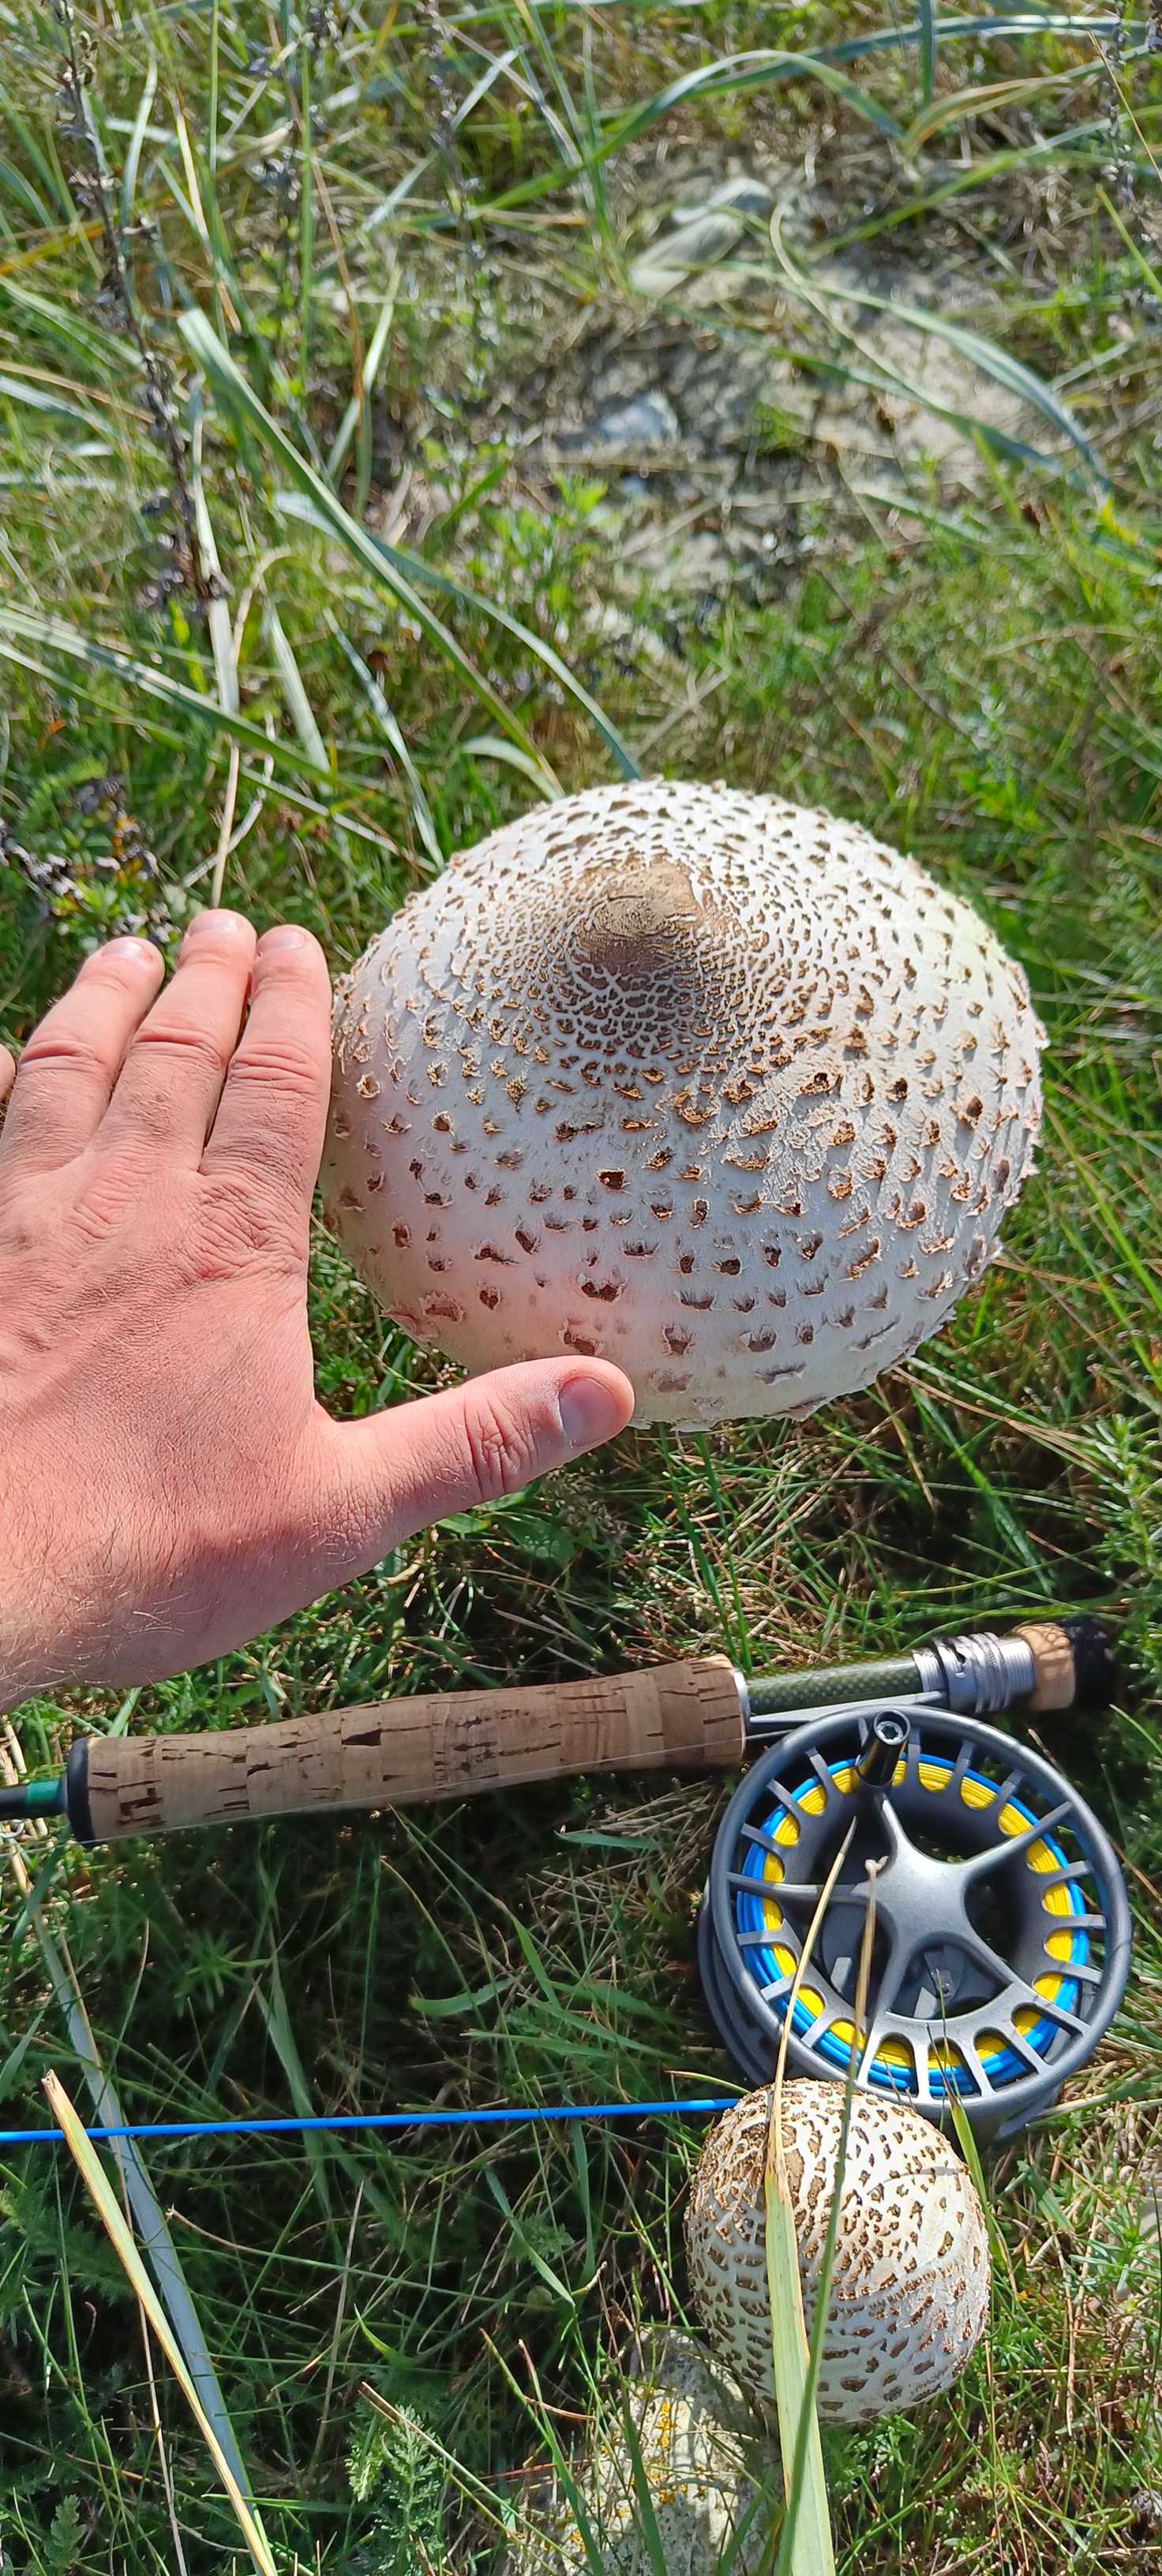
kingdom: Fungi
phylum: Basidiomycota
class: Agaricomycetes
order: Agaricales
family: Agaricaceae
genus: Macrolepiota
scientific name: Macrolepiota procera
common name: stor kæmpeparasolhat
